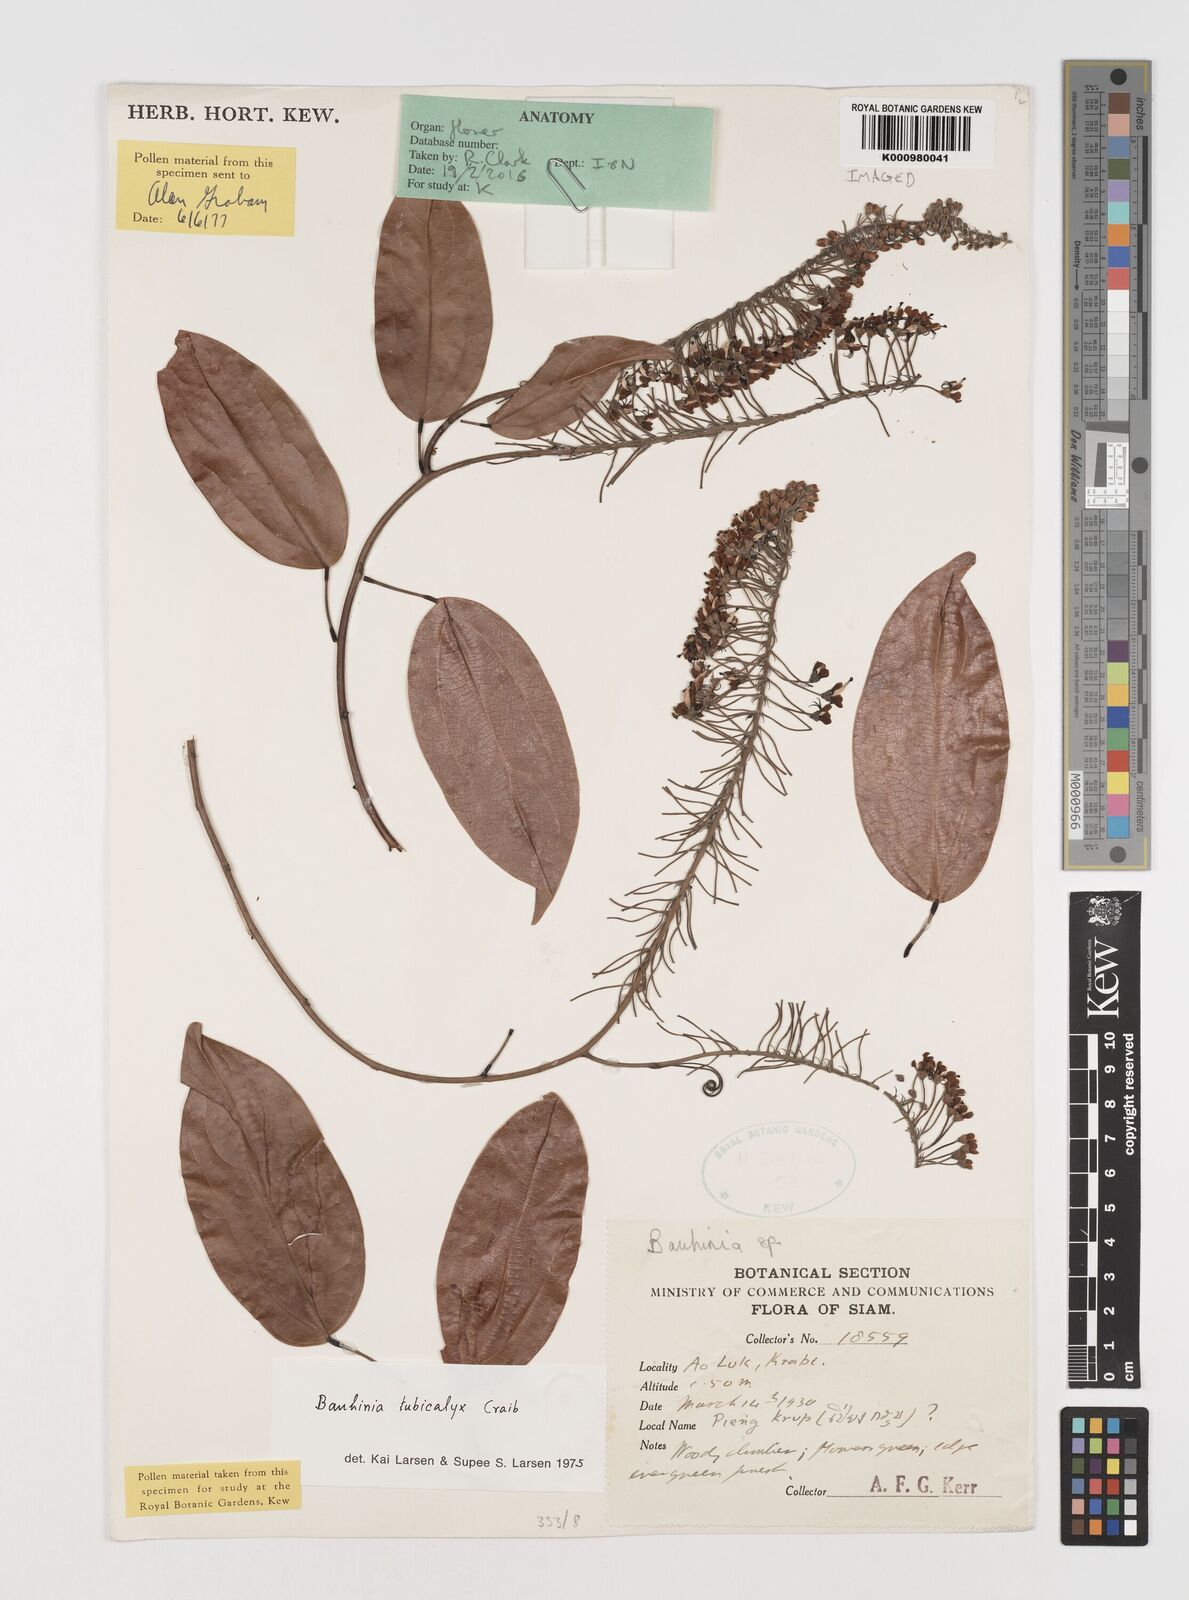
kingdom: Plantae
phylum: Tracheophyta
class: Magnoliopsida
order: Fabales
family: Fabaceae
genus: Phanera
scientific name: Phanera tubicalyx
